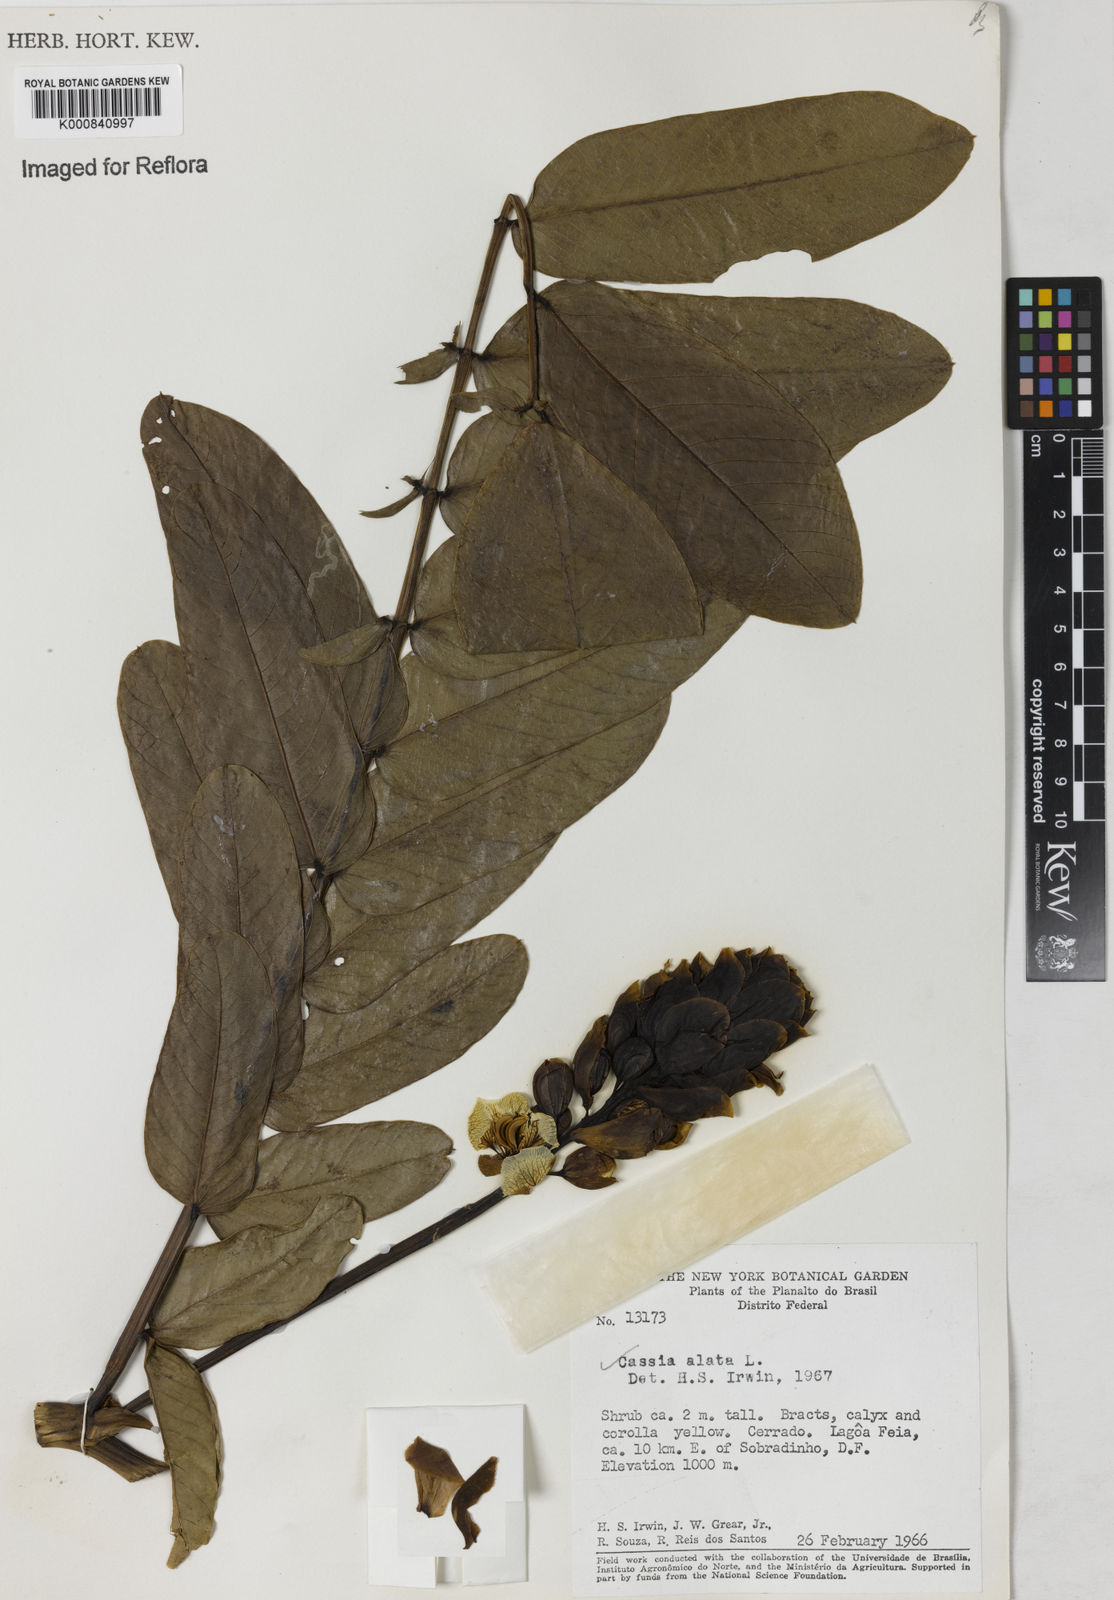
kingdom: Plantae
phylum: Tracheophyta
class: Magnoliopsida
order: Fabales
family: Fabaceae
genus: Senna
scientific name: Senna alata
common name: Emperor's candlesticks
